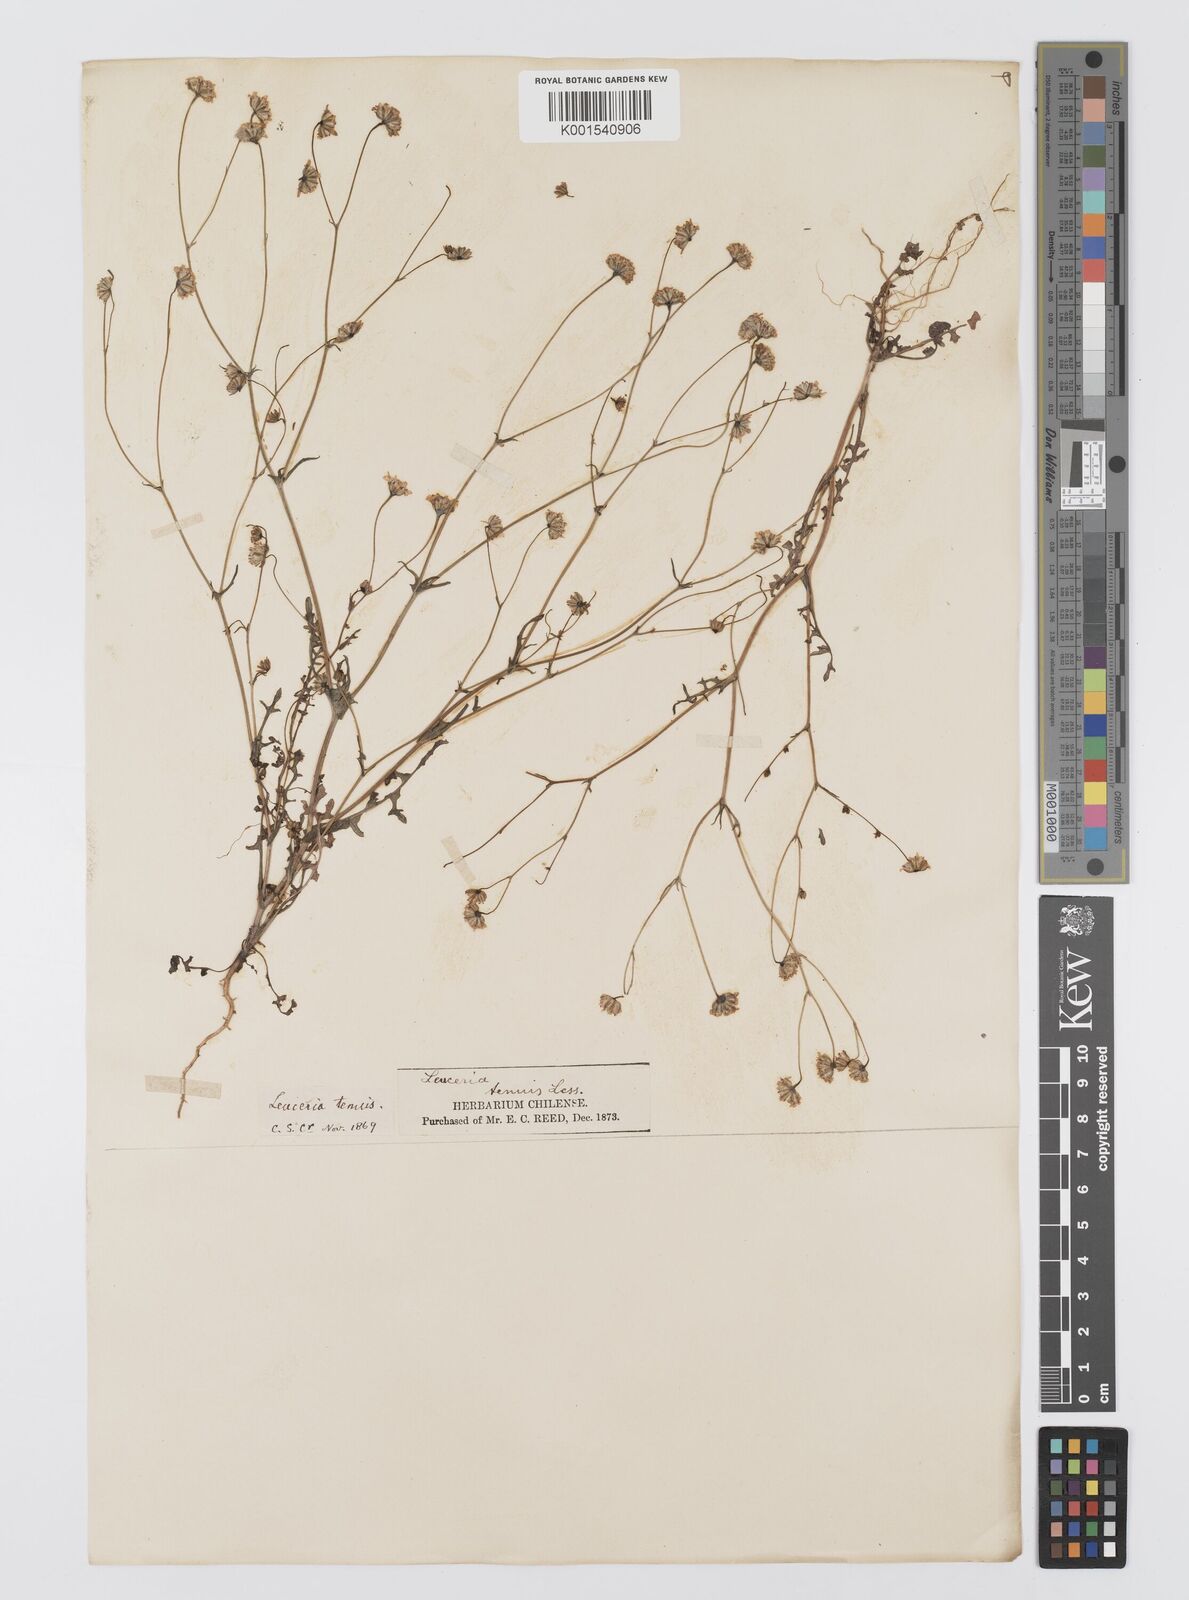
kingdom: Plantae
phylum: Tracheophyta
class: Magnoliopsida
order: Asterales
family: Asteraceae
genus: Leucheria
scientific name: Leucheria tenuis
